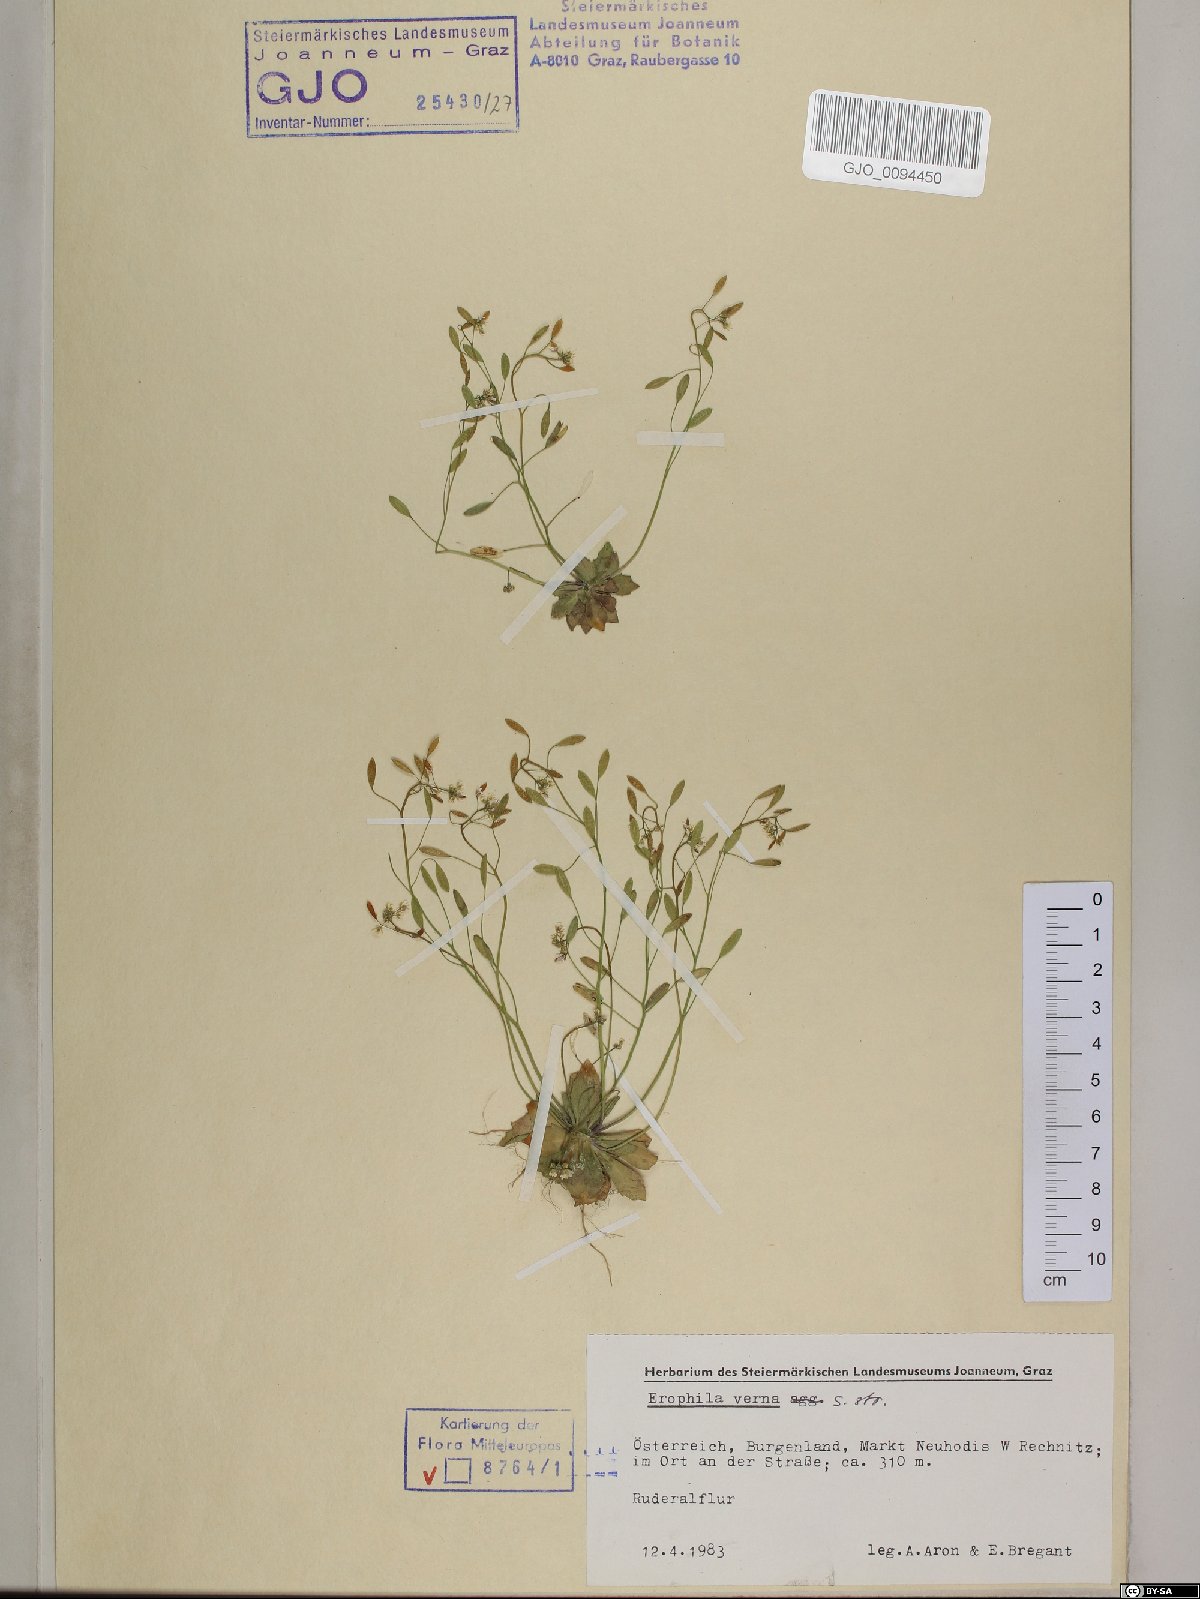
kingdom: Plantae
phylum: Tracheophyta
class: Magnoliopsida
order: Brassicales
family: Brassicaceae
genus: Draba
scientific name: Draba verna
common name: Spring draba
